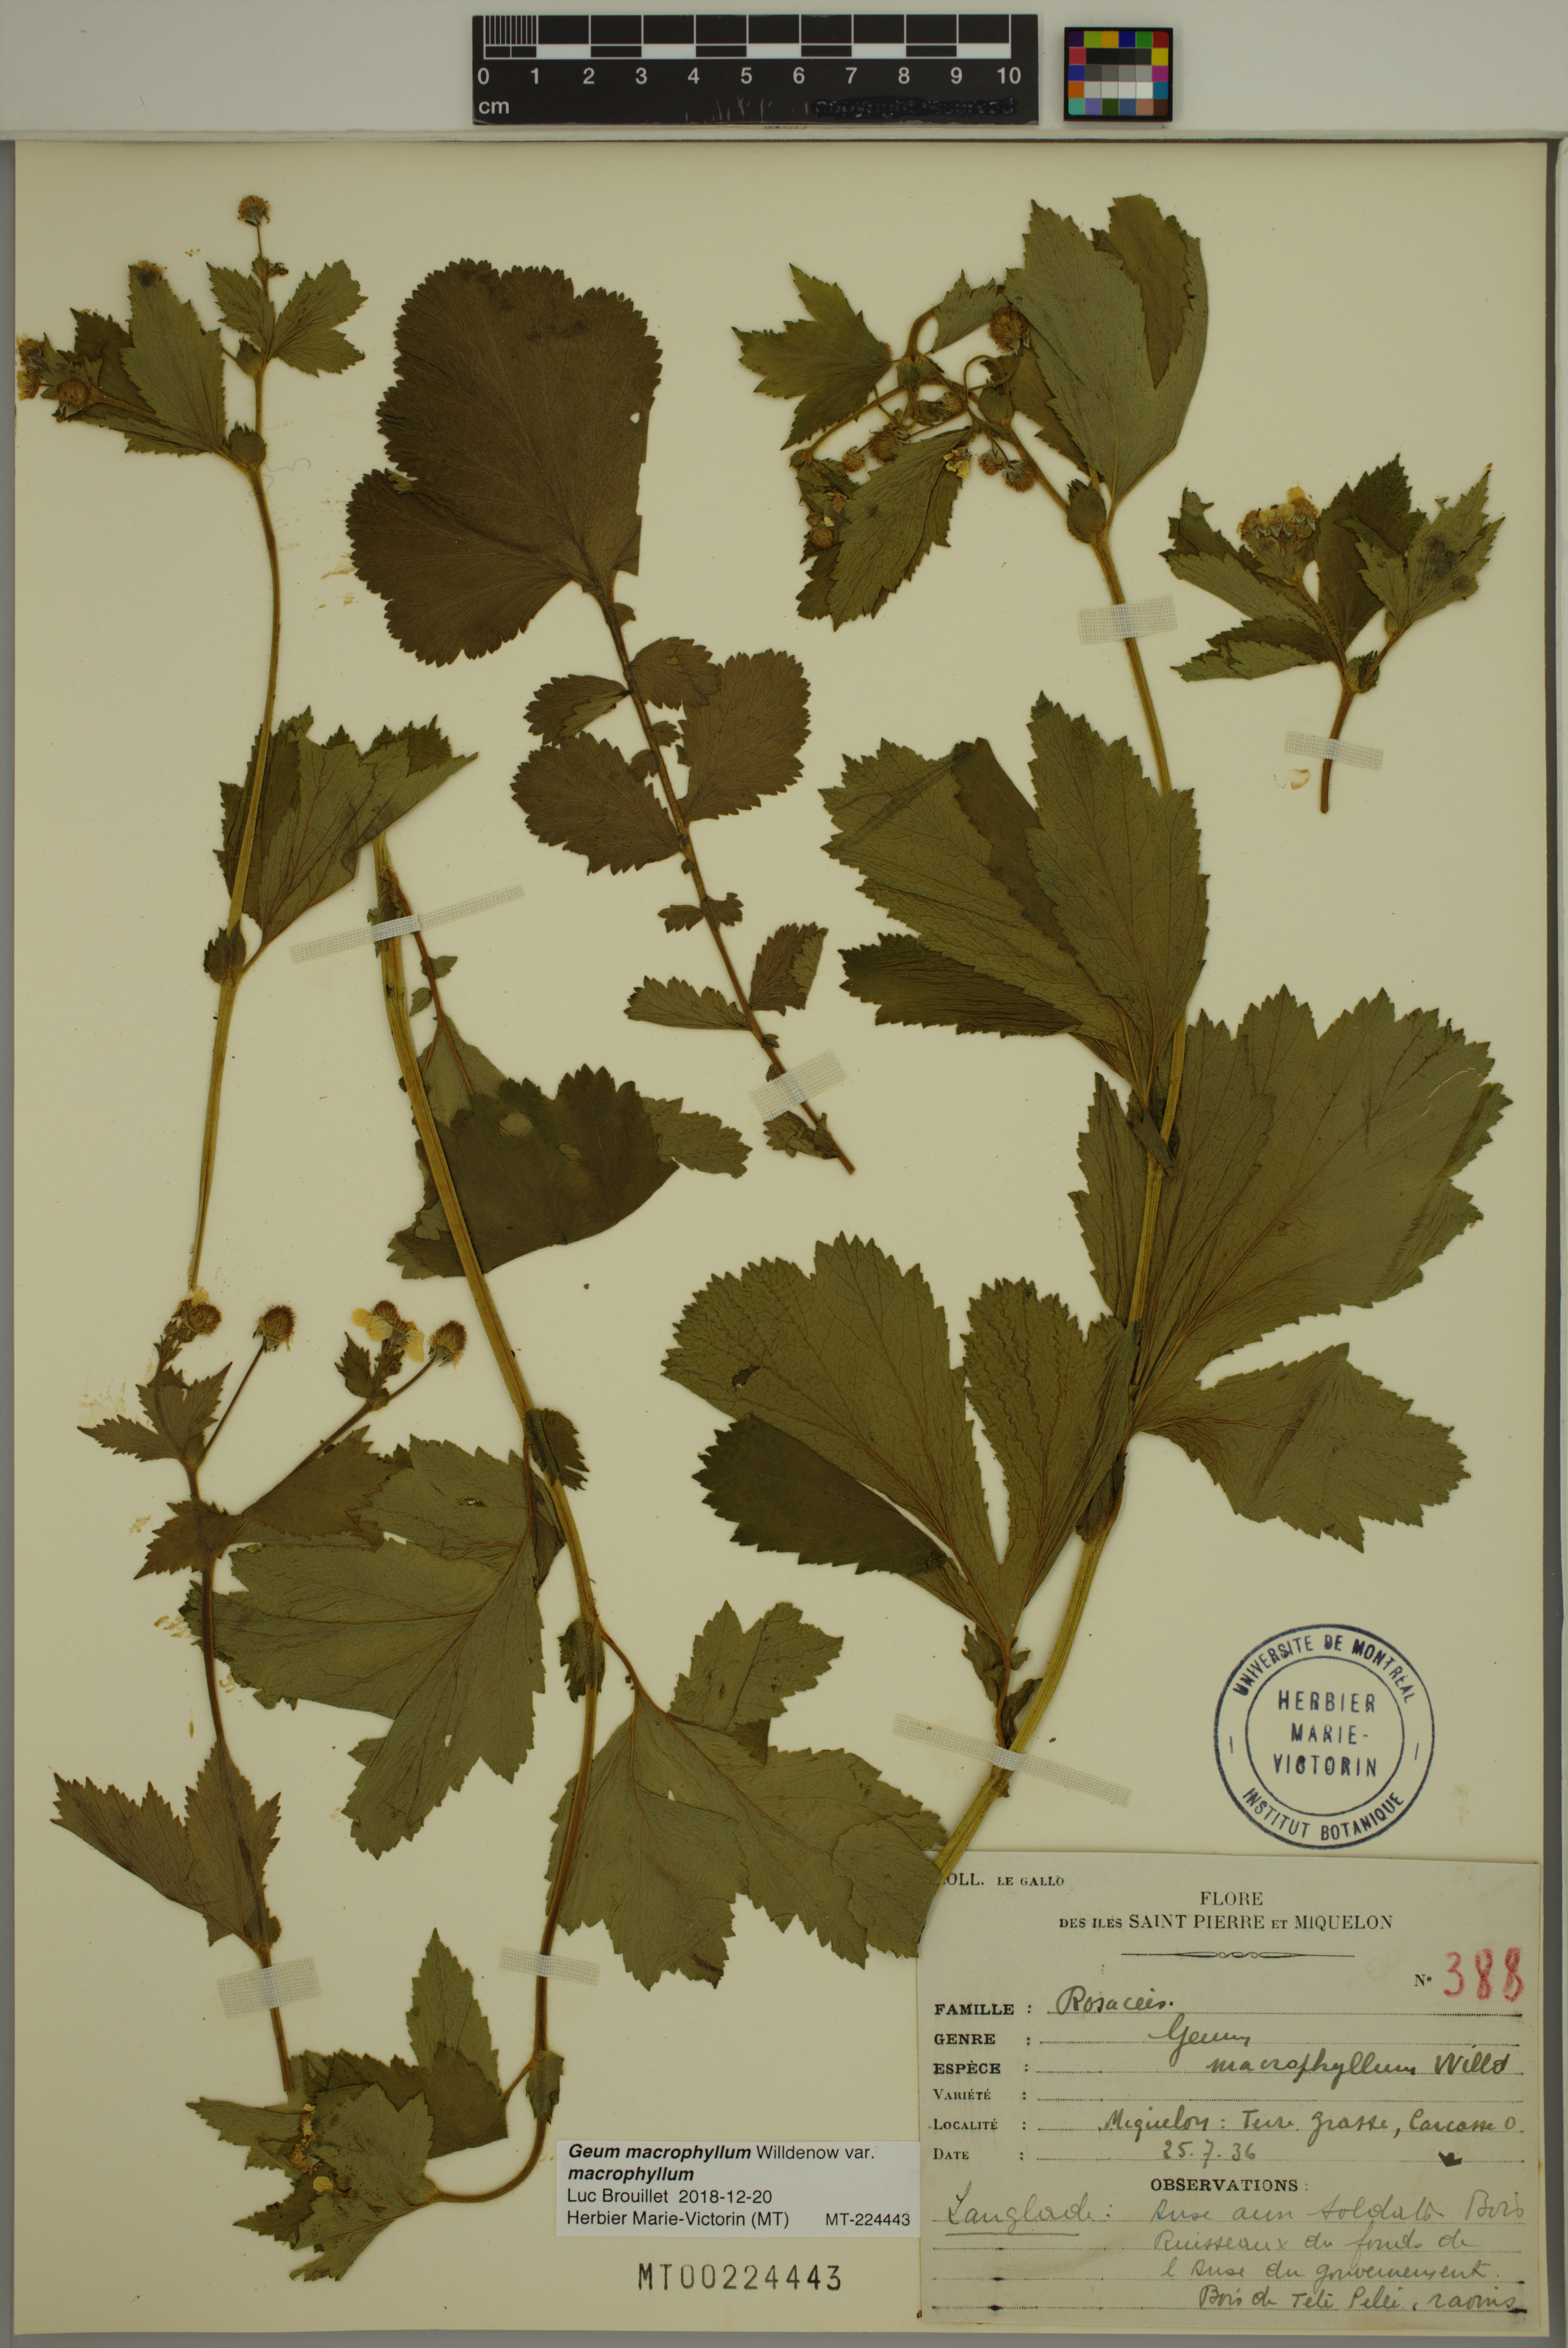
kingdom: Plantae
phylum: Tracheophyta
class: Magnoliopsida
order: Rosales
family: Rosaceae
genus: Geum
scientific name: Geum macrophyllum
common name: Large-leaved avens
